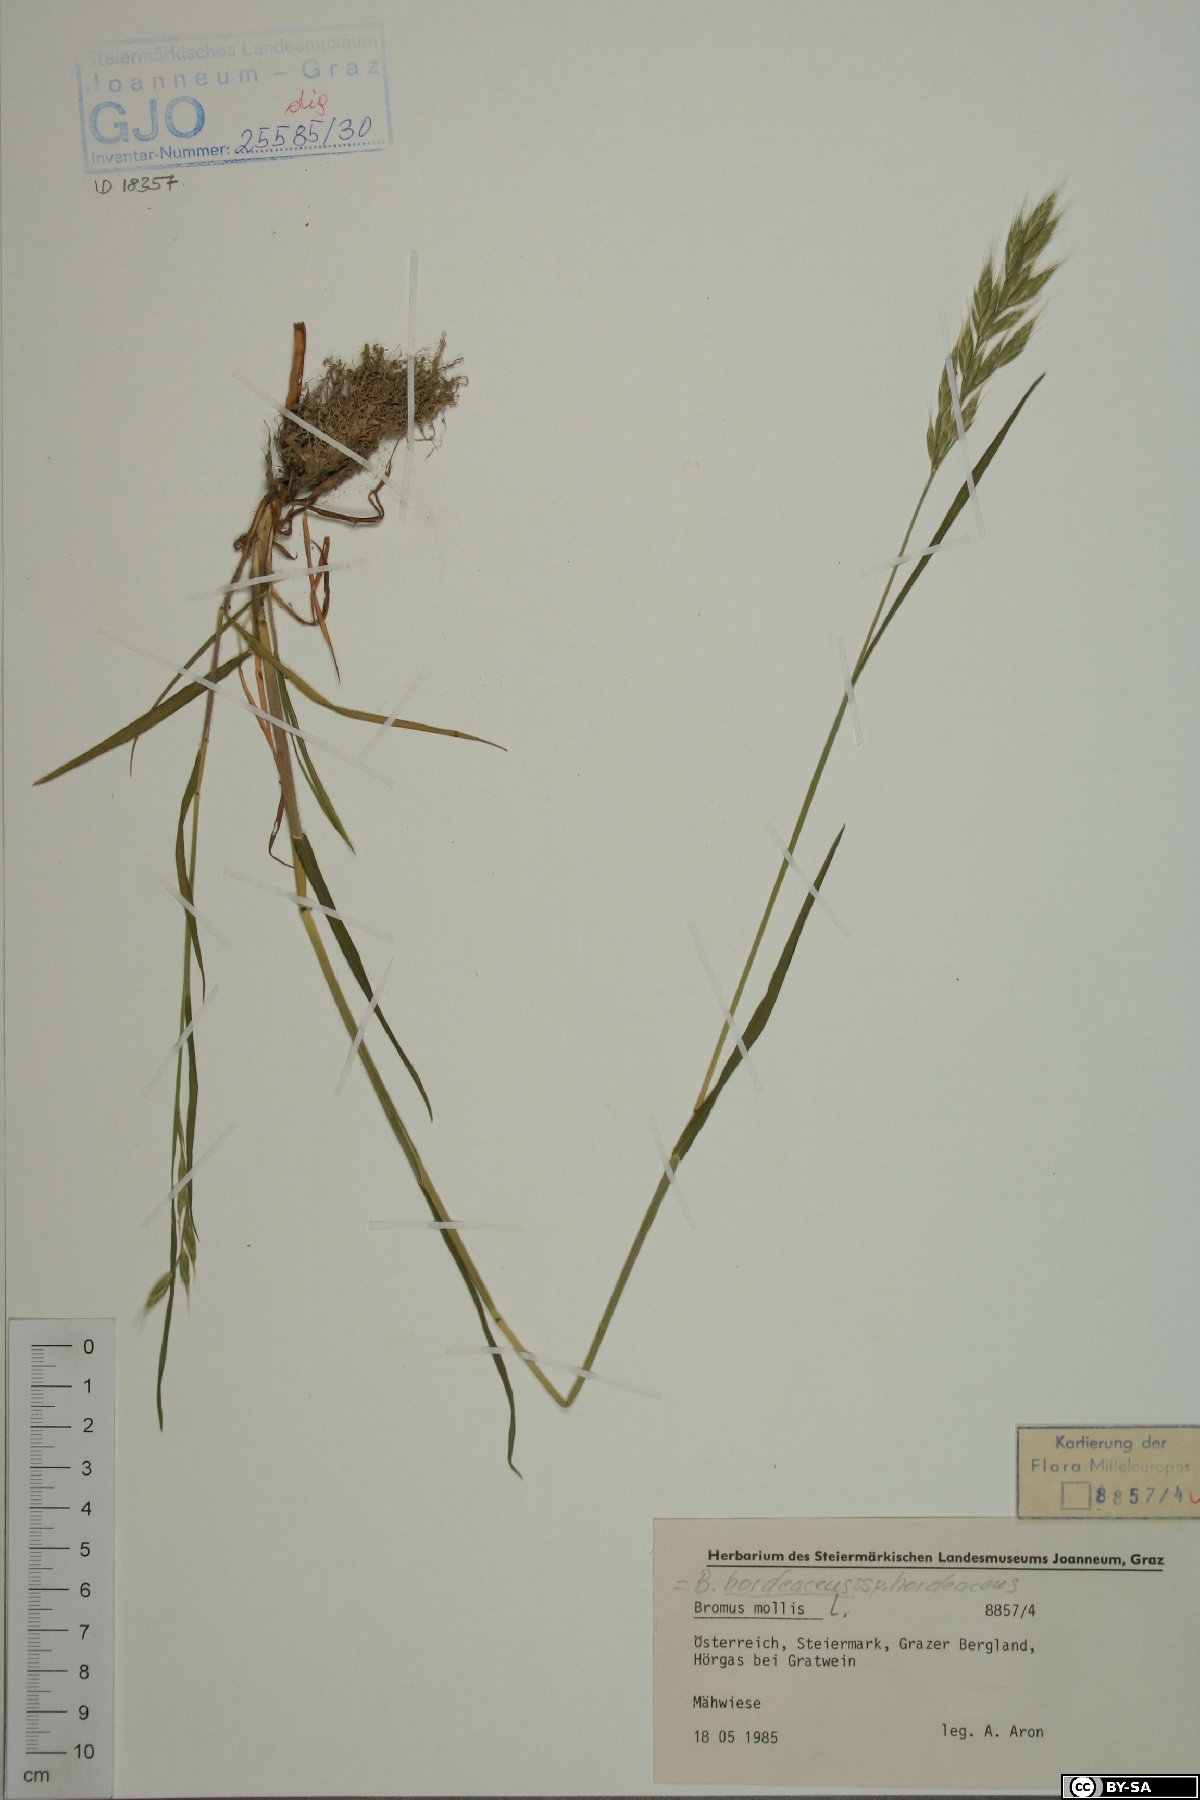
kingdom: Plantae
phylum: Tracheophyta
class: Liliopsida
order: Poales
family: Poaceae
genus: Bromus
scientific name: Bromus hordeaceus
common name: Soft brome
